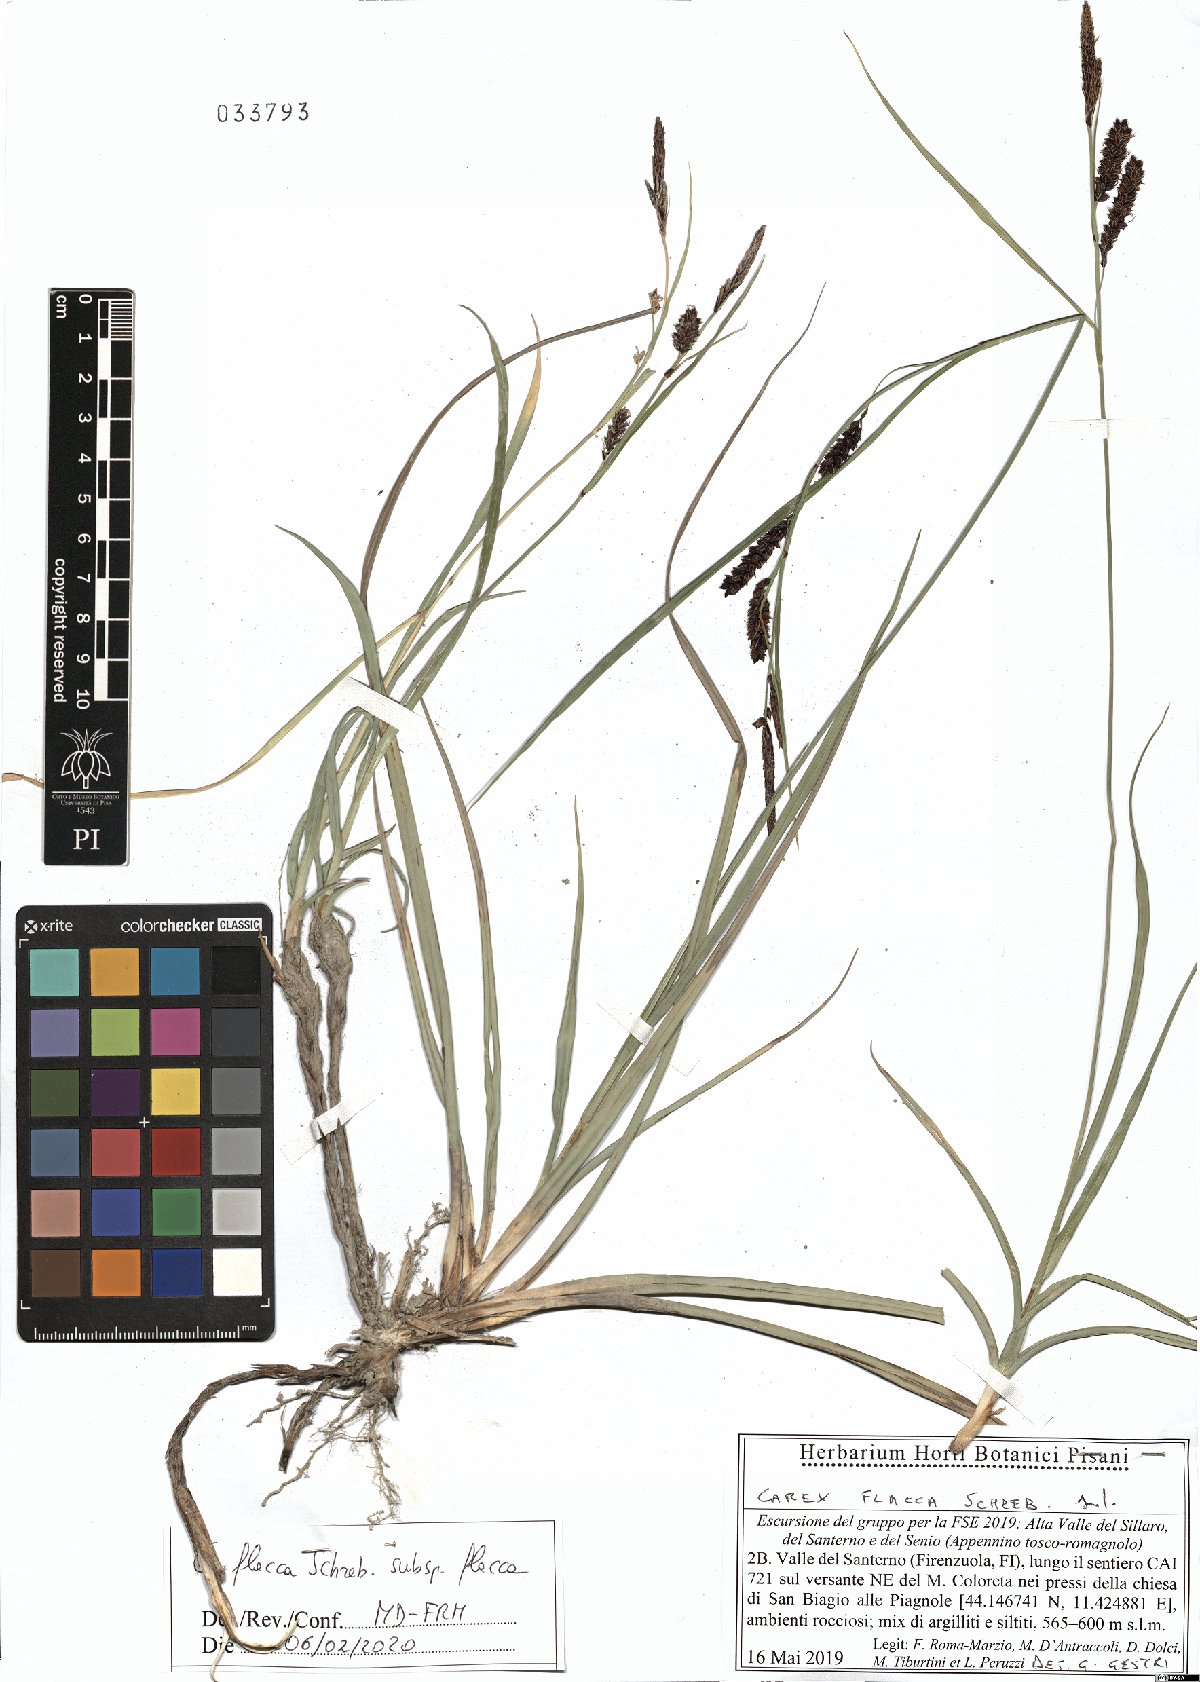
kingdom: Plantae
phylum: Tracheophyta
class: Liliopsida
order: Poales
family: Cyperaceae
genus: Carex
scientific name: Carex flacca
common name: Glaucous sedge
